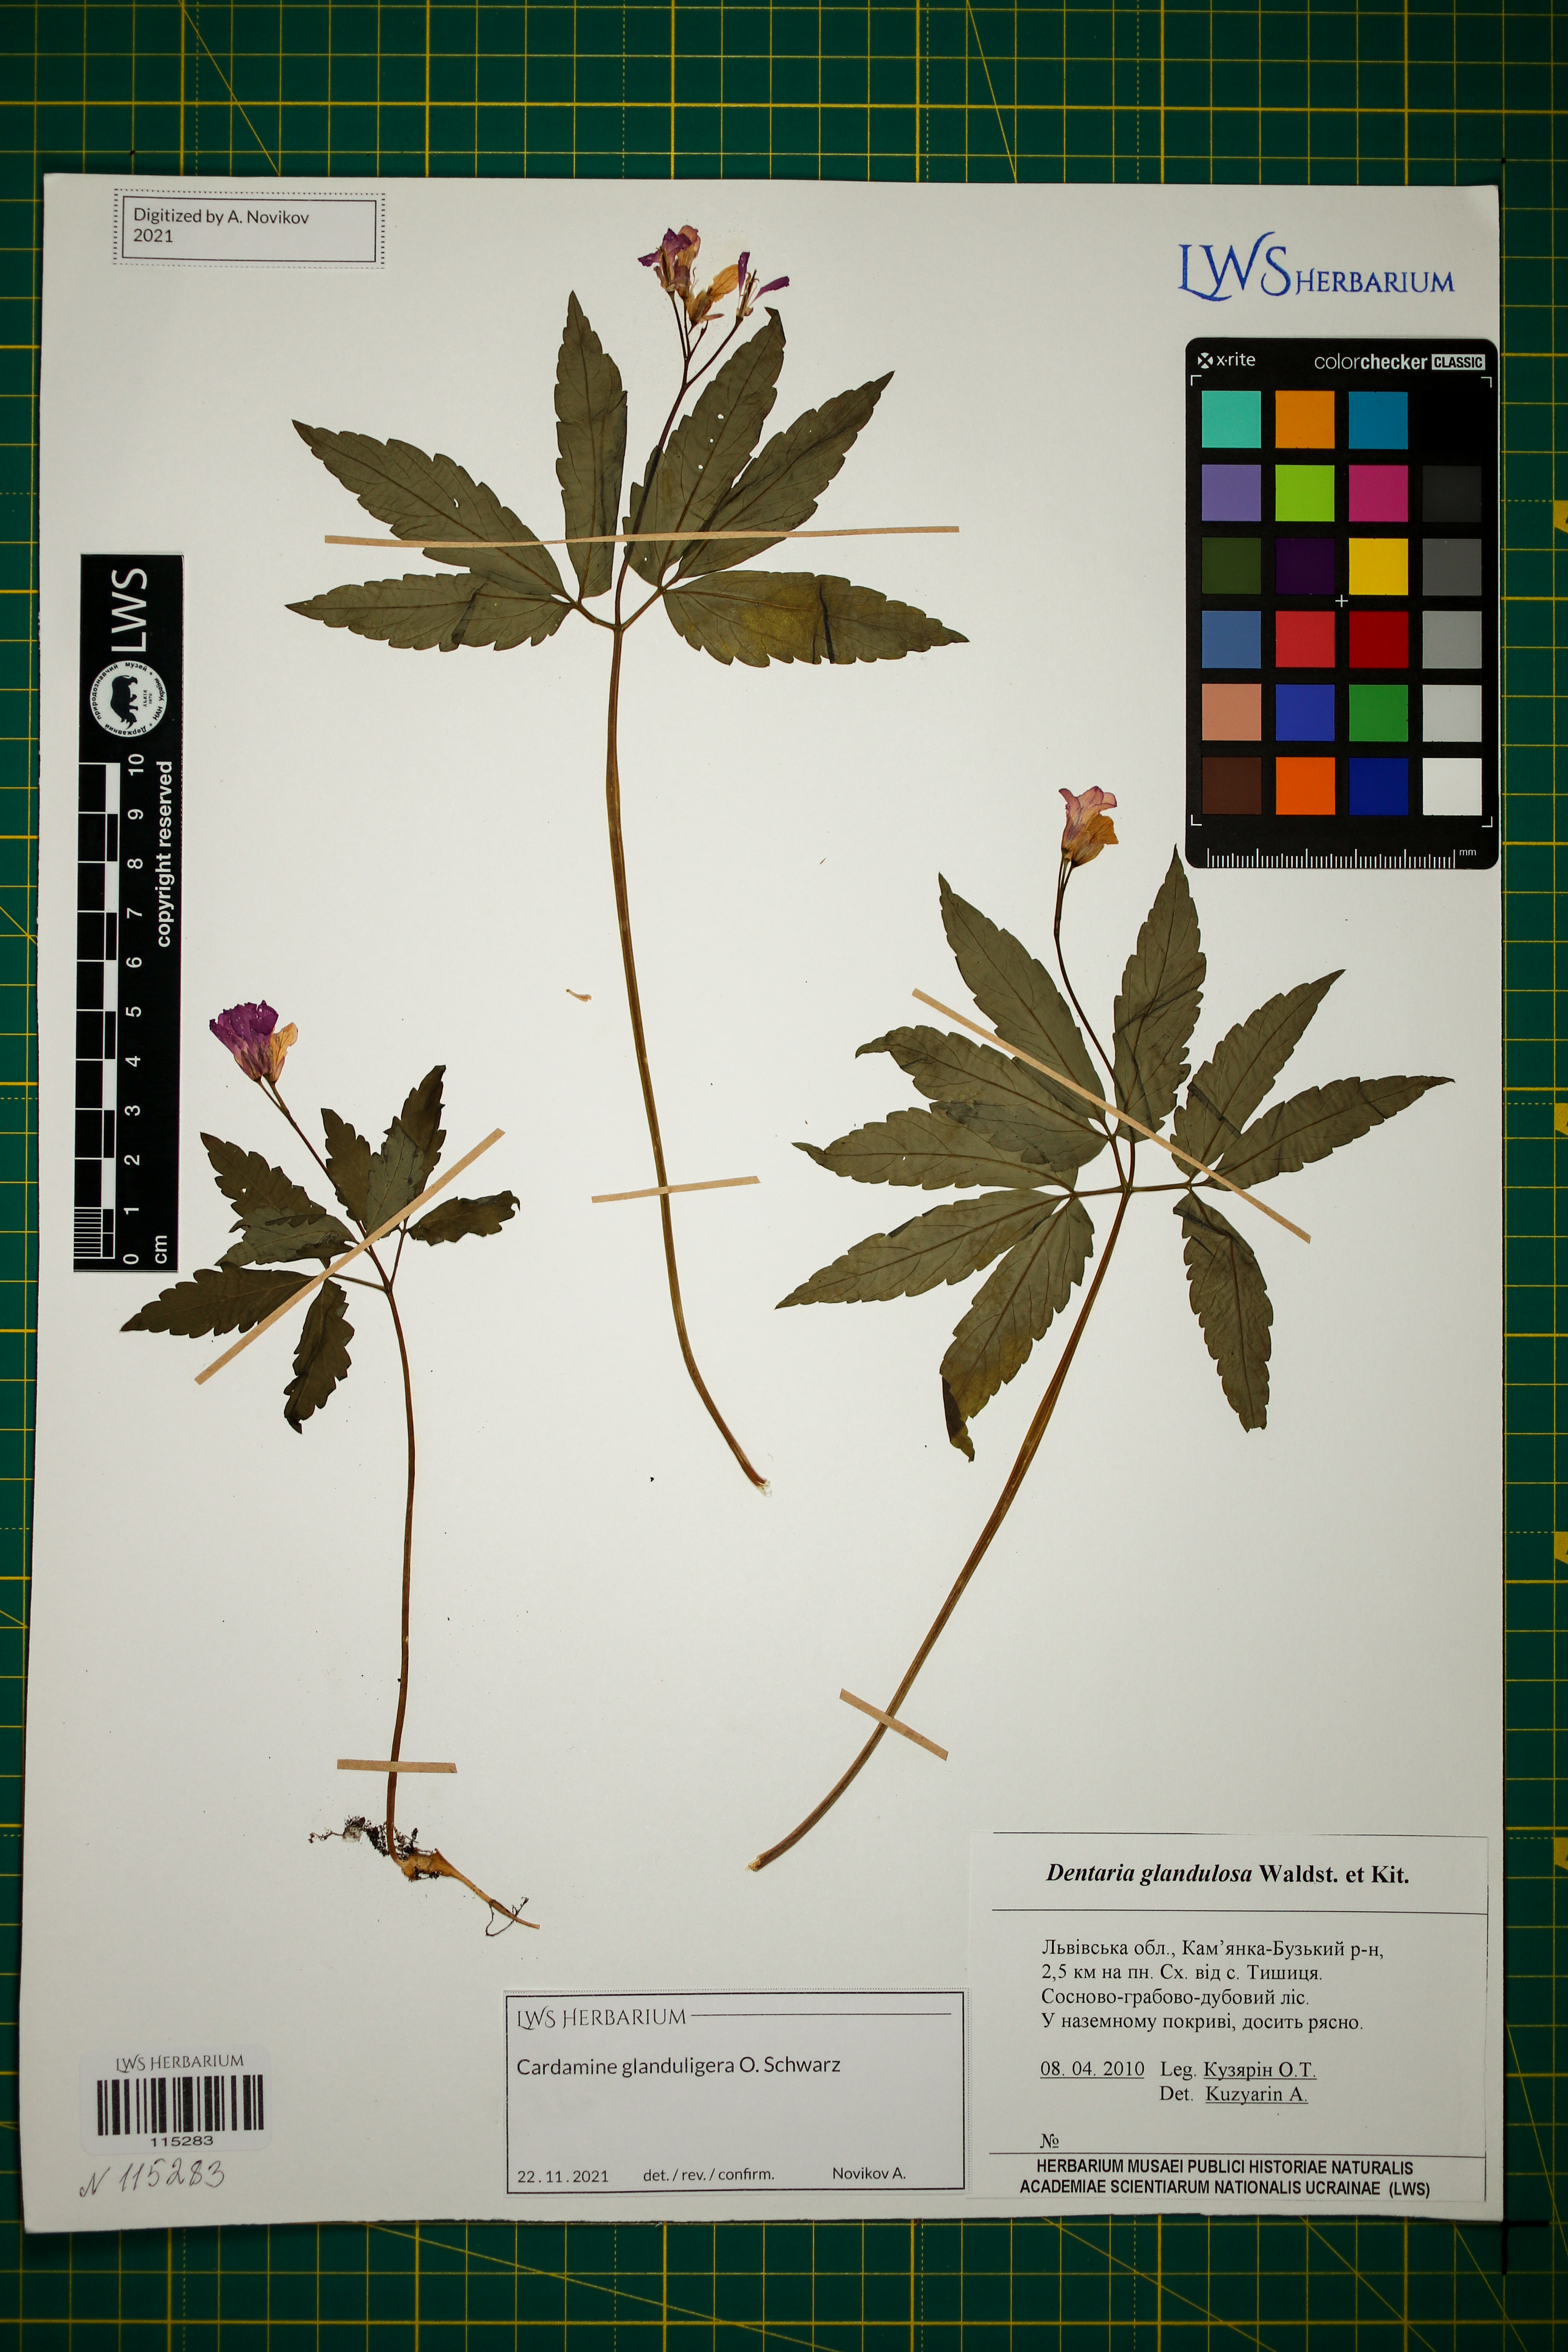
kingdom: Plantae
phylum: Tracheophyta
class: Magnoliopsida
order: Brassicales
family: Brassicaceae
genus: Cardamine
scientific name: Cardamine glanduligera
